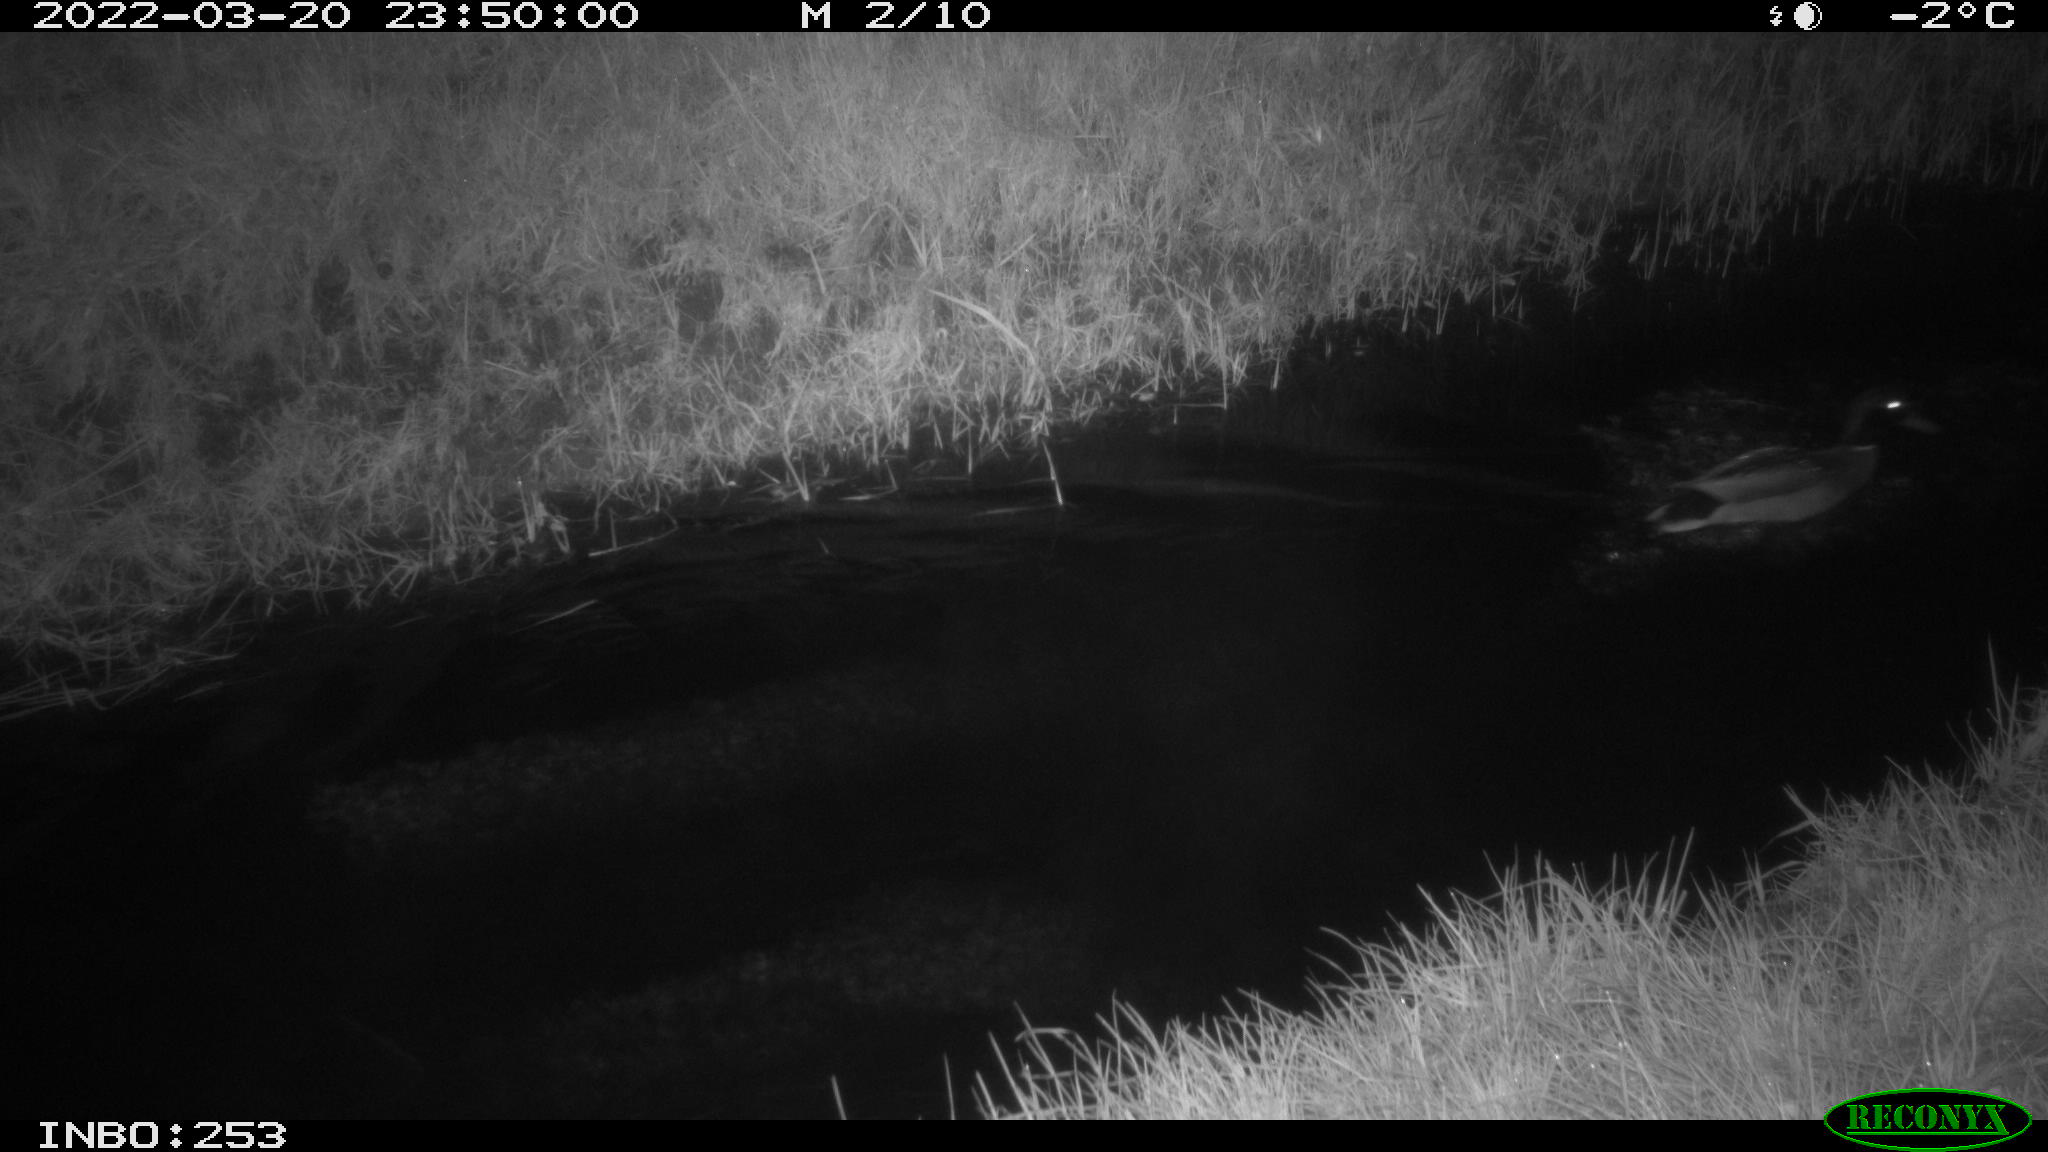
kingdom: Animalia
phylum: Chordata
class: Aves
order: Anseriformes
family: Anatidae
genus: Anas
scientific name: Anas platyrhynchos
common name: Mallard
